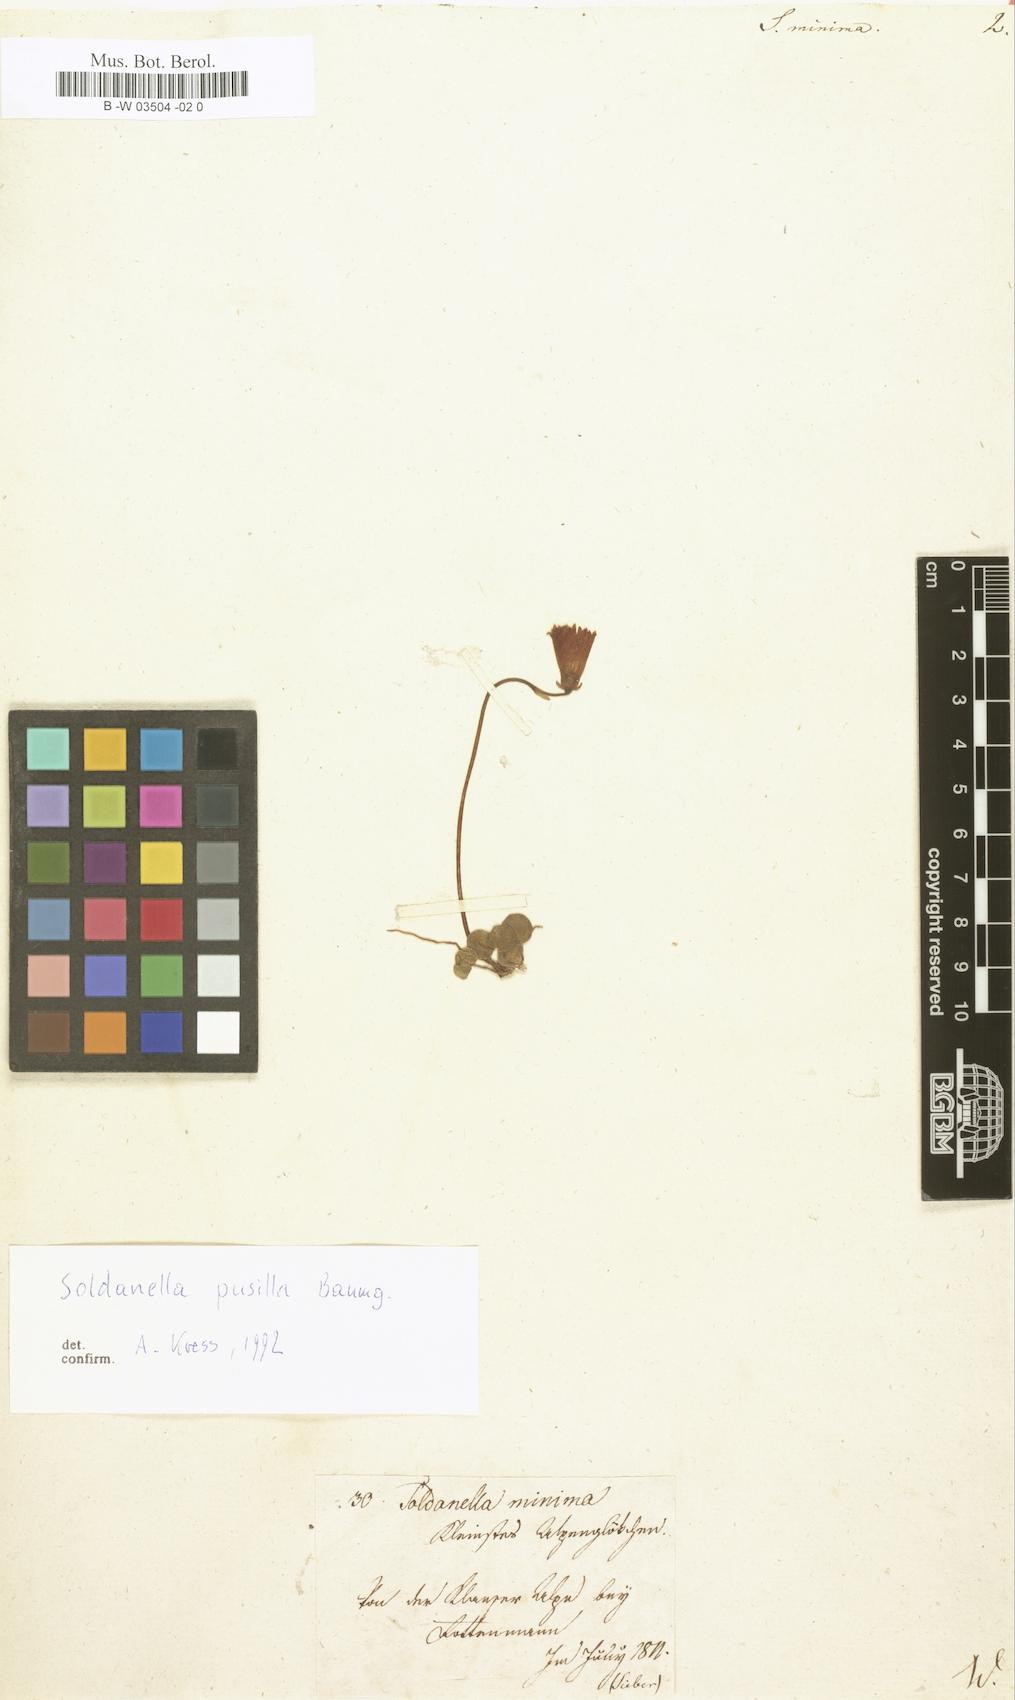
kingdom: Plantae
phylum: Tracheophyta
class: Magnoliopsida
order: Ericales
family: Primulaceae
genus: Soldanella
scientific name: Soldanella minima
